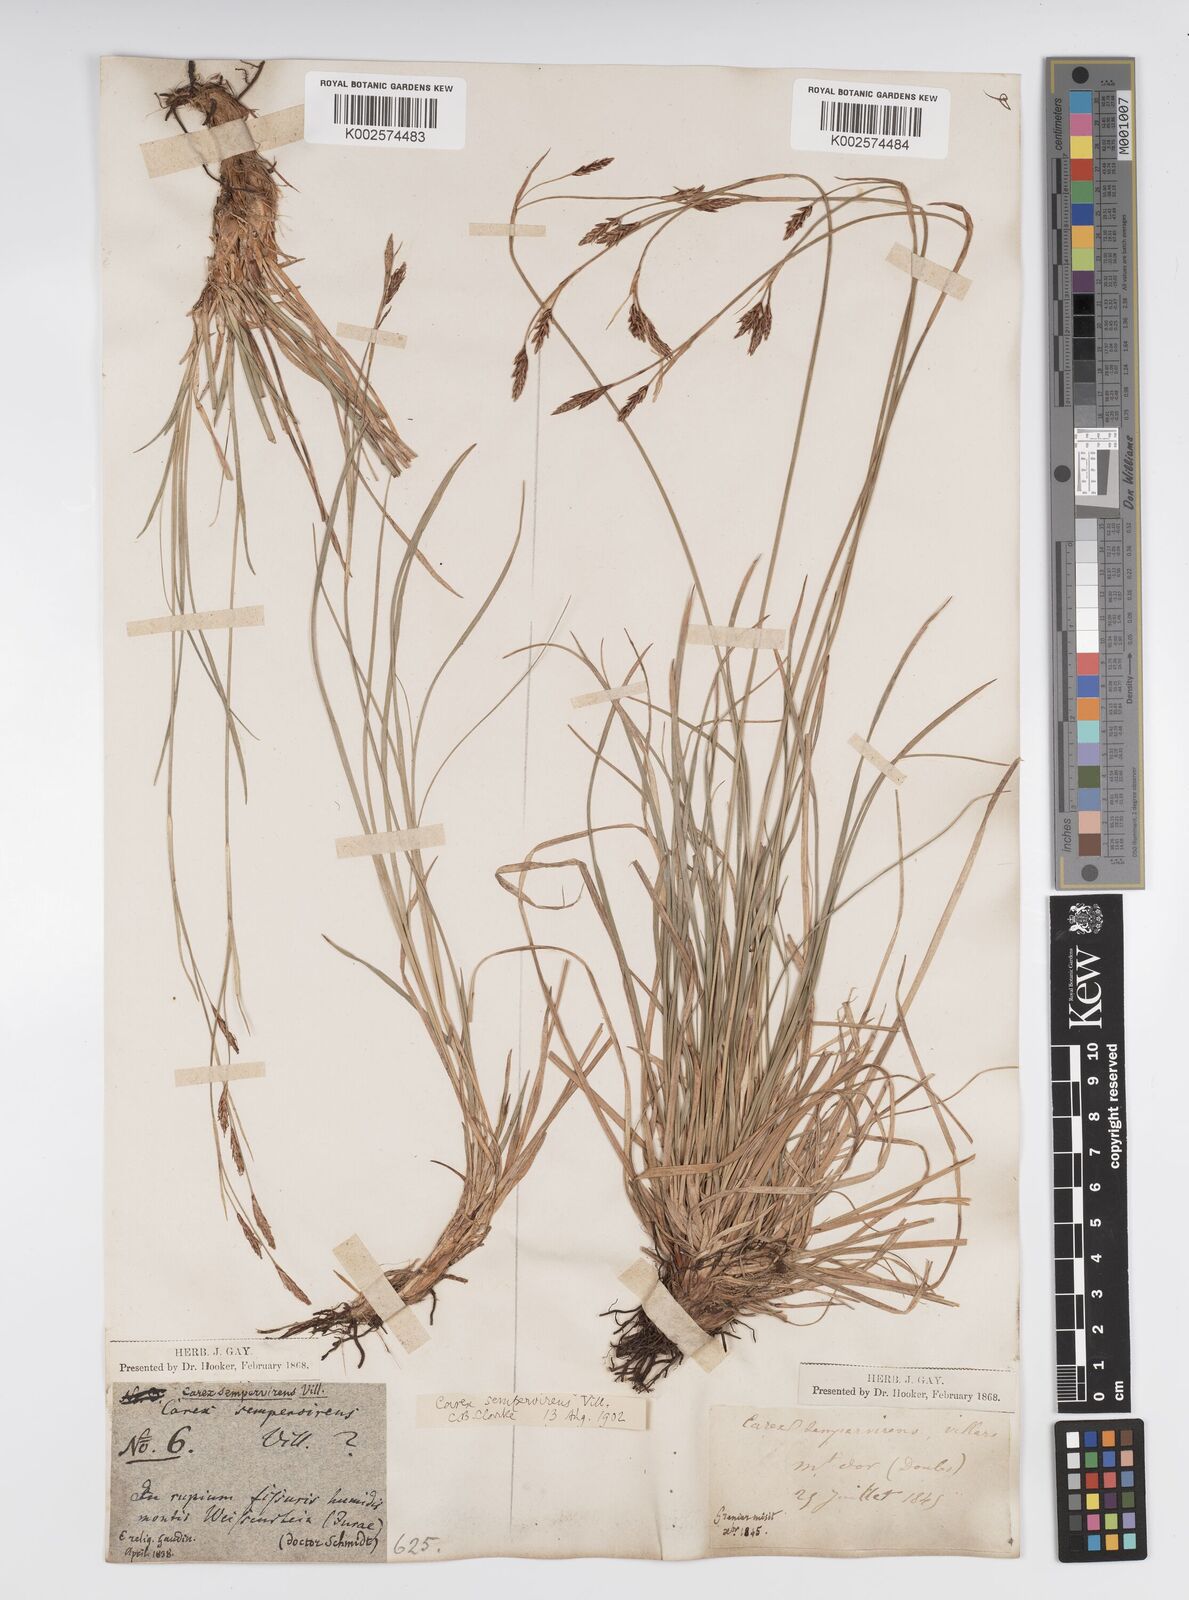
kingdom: Plantae
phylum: Tracheophyta
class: Liliopsida
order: Poales
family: Cyperaceae
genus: Carex
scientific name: Carex sempervirens
